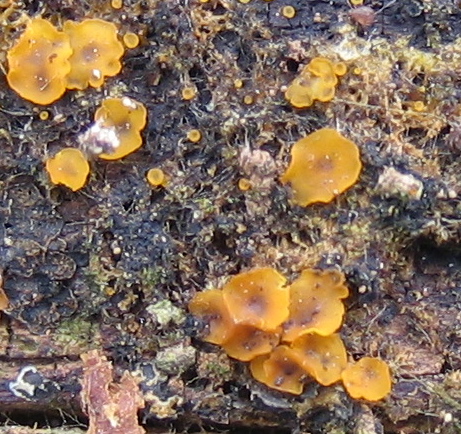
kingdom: Fungi
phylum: Ascomycota
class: Orbiliomycetes
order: Orbiliales
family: Orbiliaceae
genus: Orbilia
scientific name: Orbilia xanthostigma
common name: krumsporet voksskive
